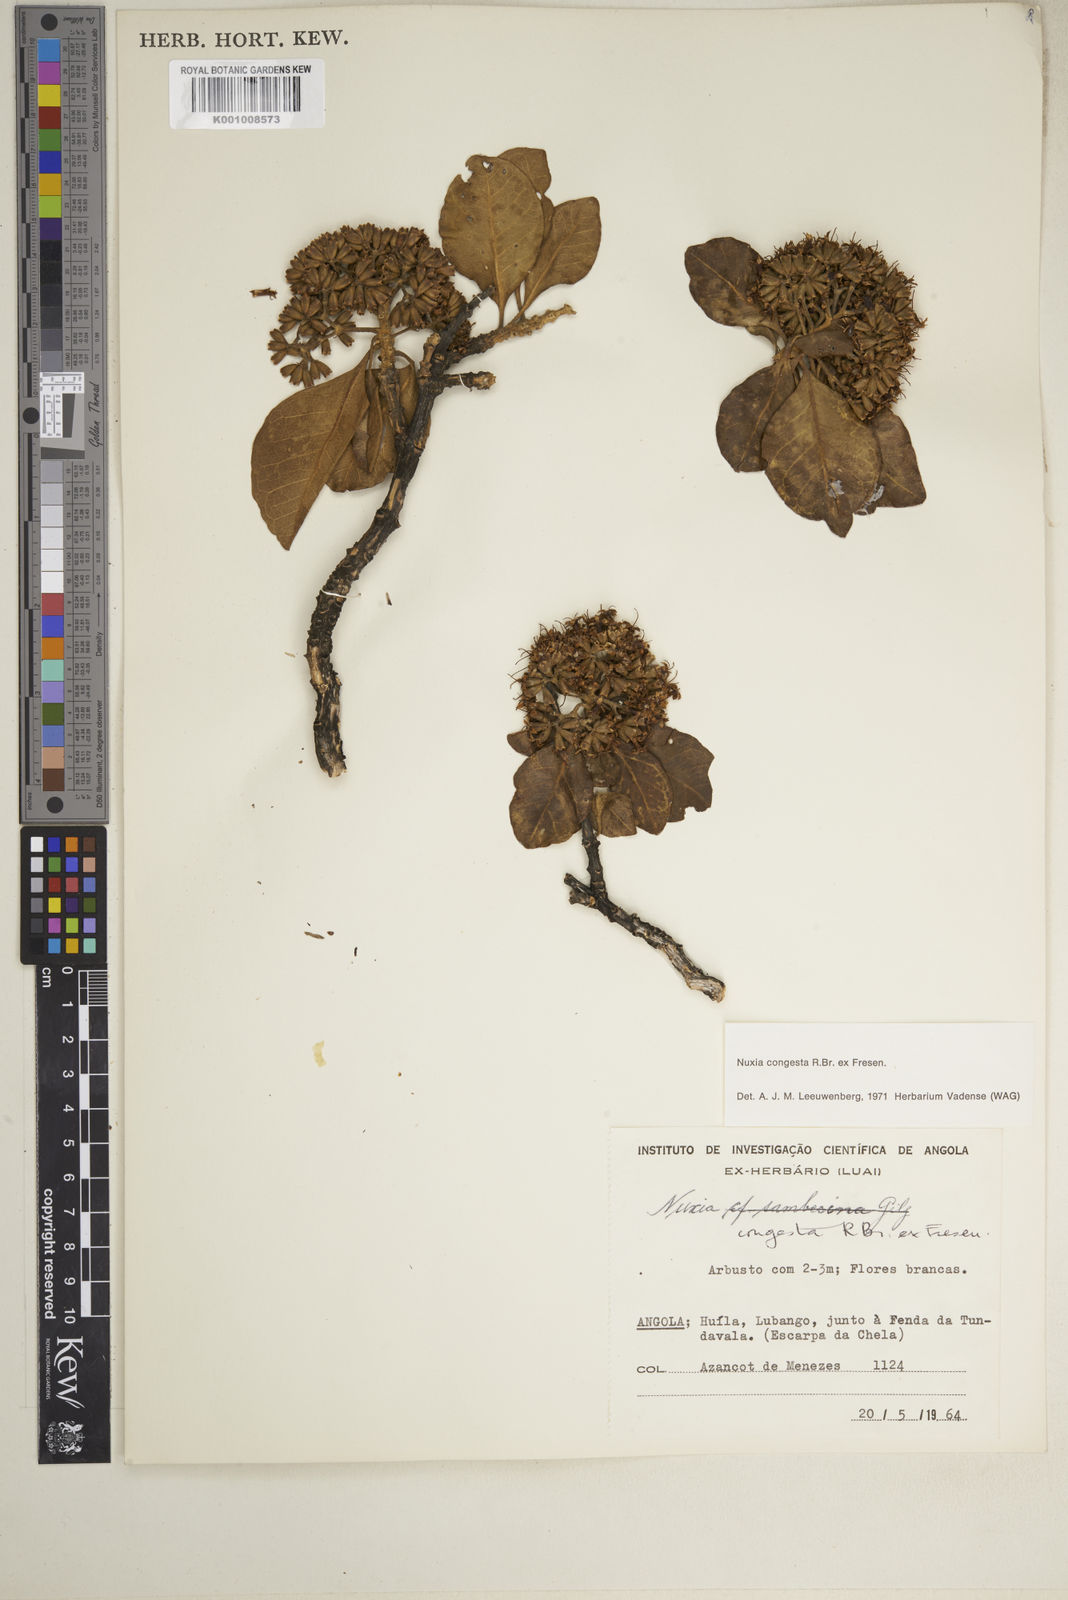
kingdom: Plantae
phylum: Tracheophyta
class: Magnoliopsida
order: Lamiales
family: Stilbaceae
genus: Nuxia
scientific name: Nuxia congesta
